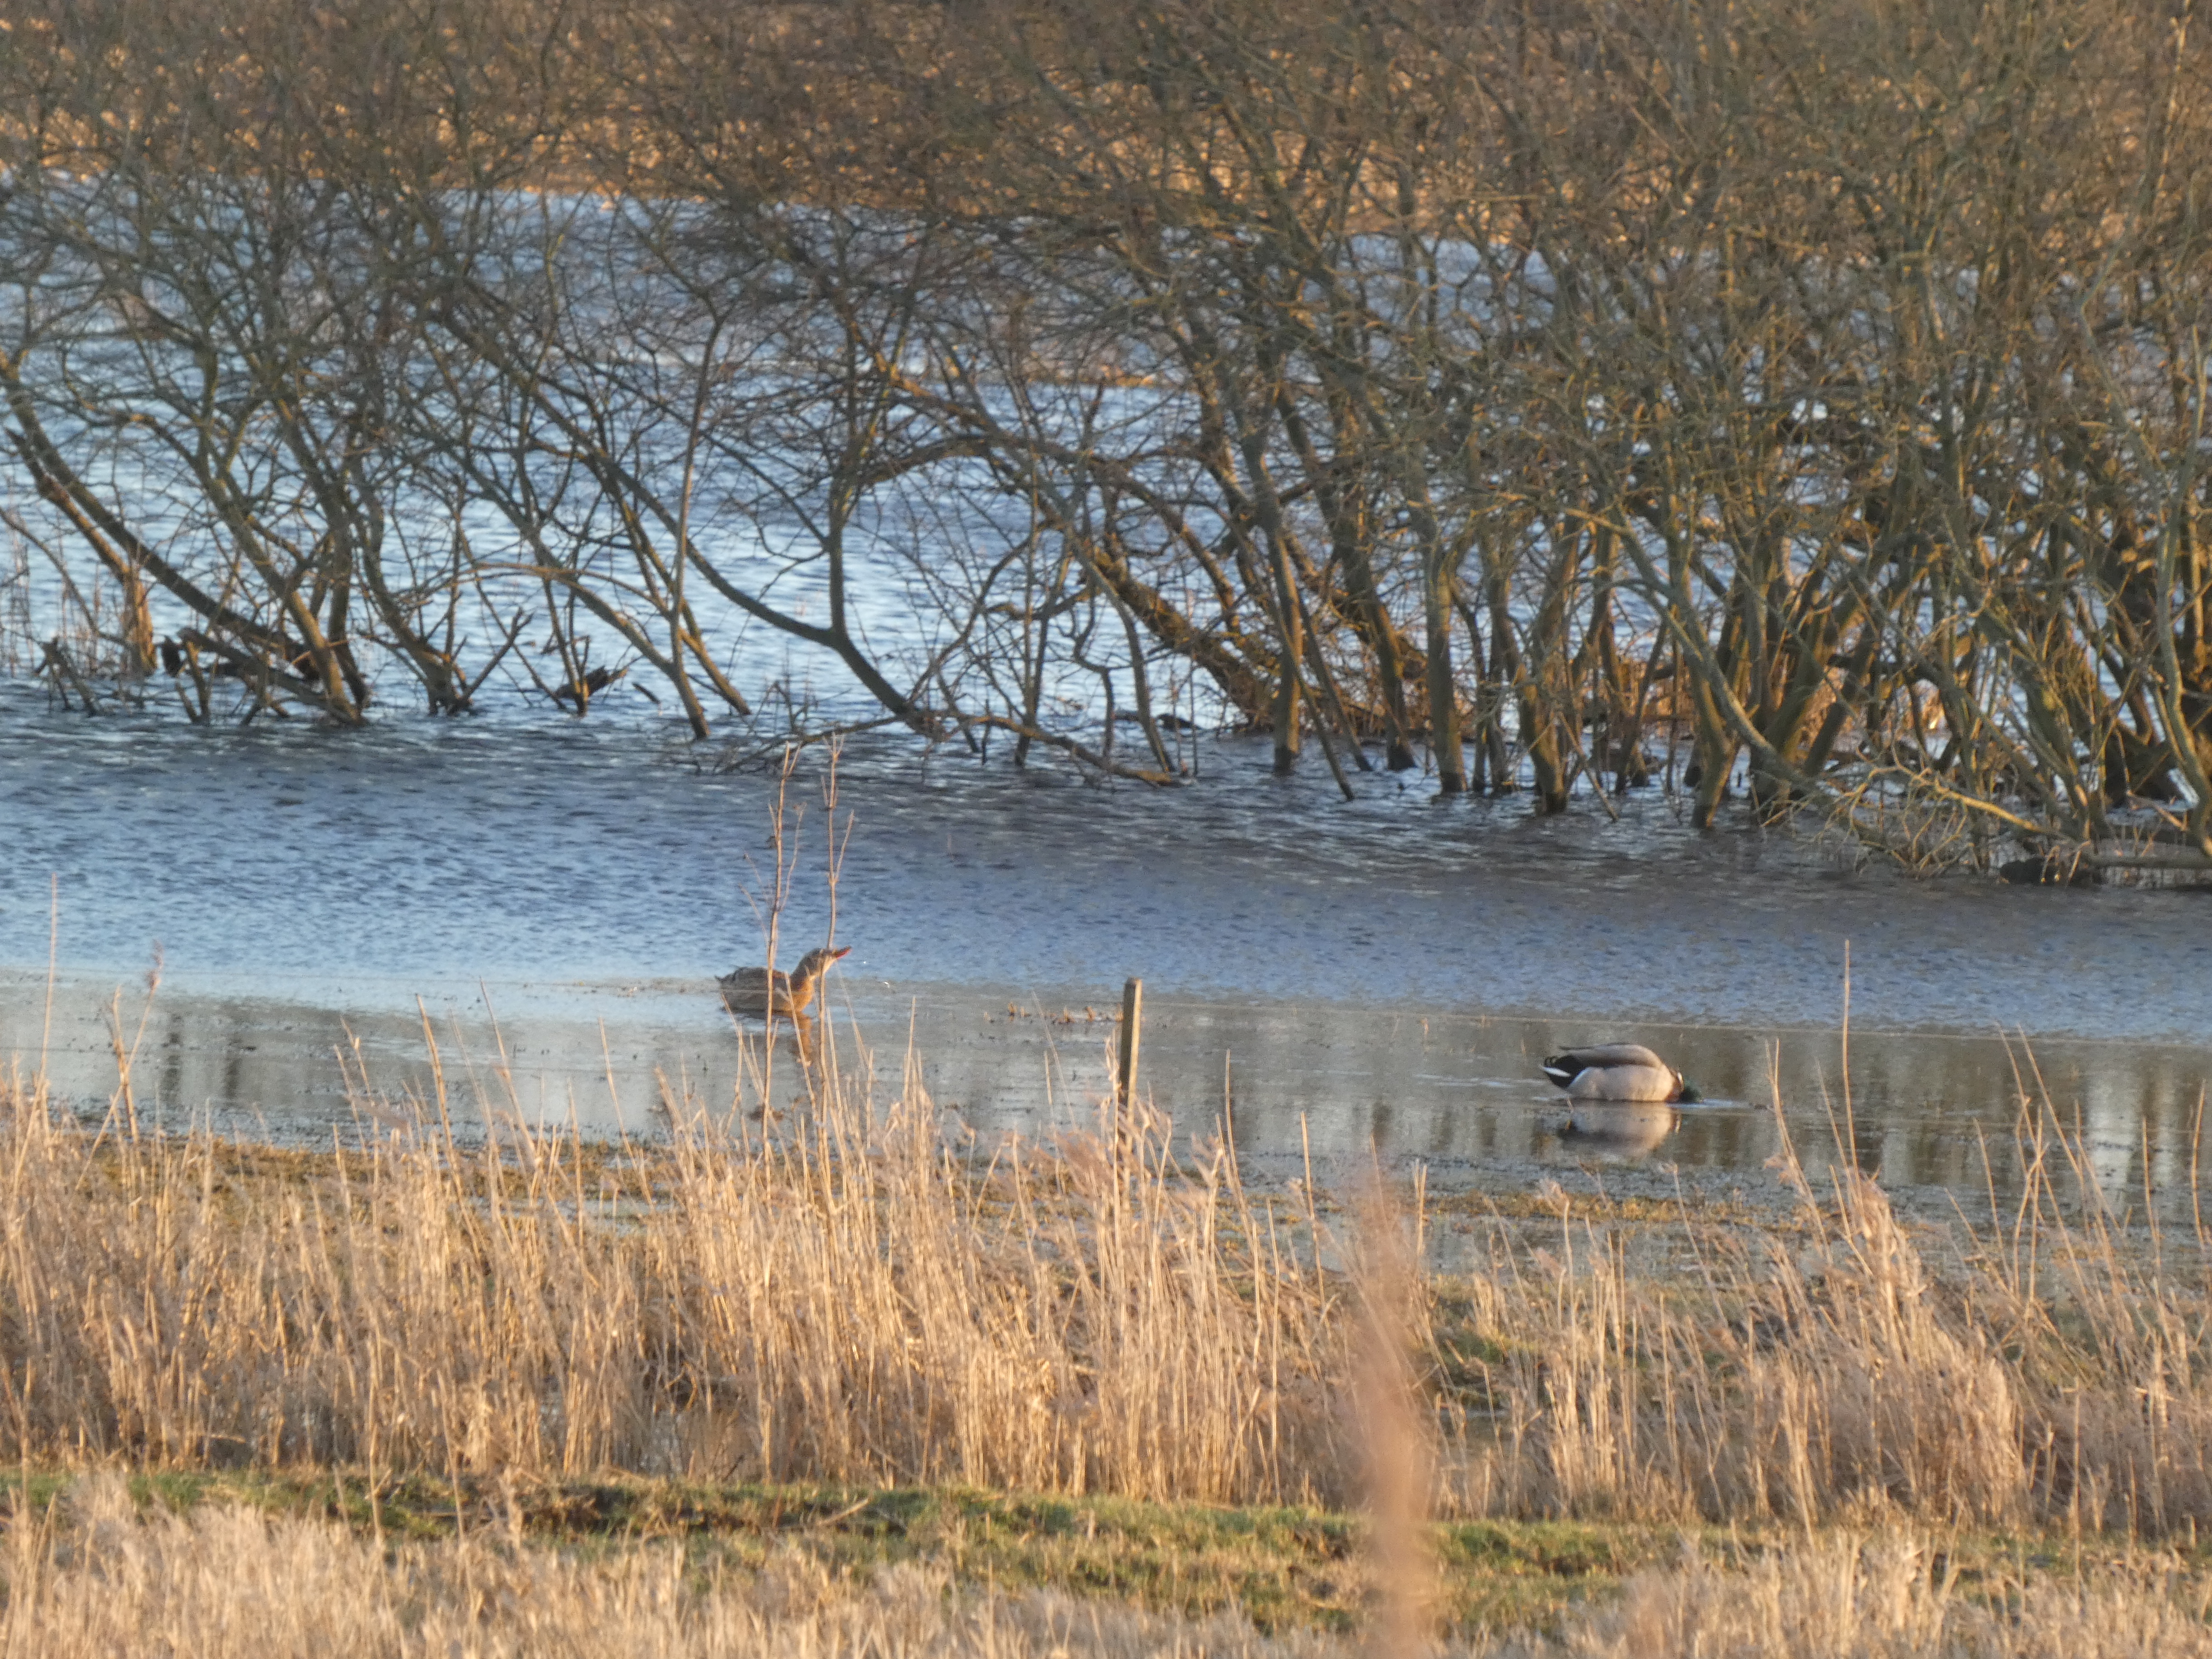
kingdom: Animalia
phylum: Chordata
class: Aves
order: Anseriformes
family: Anatidae
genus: Anas
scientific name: Anas platyrhynchos
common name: Gråand
